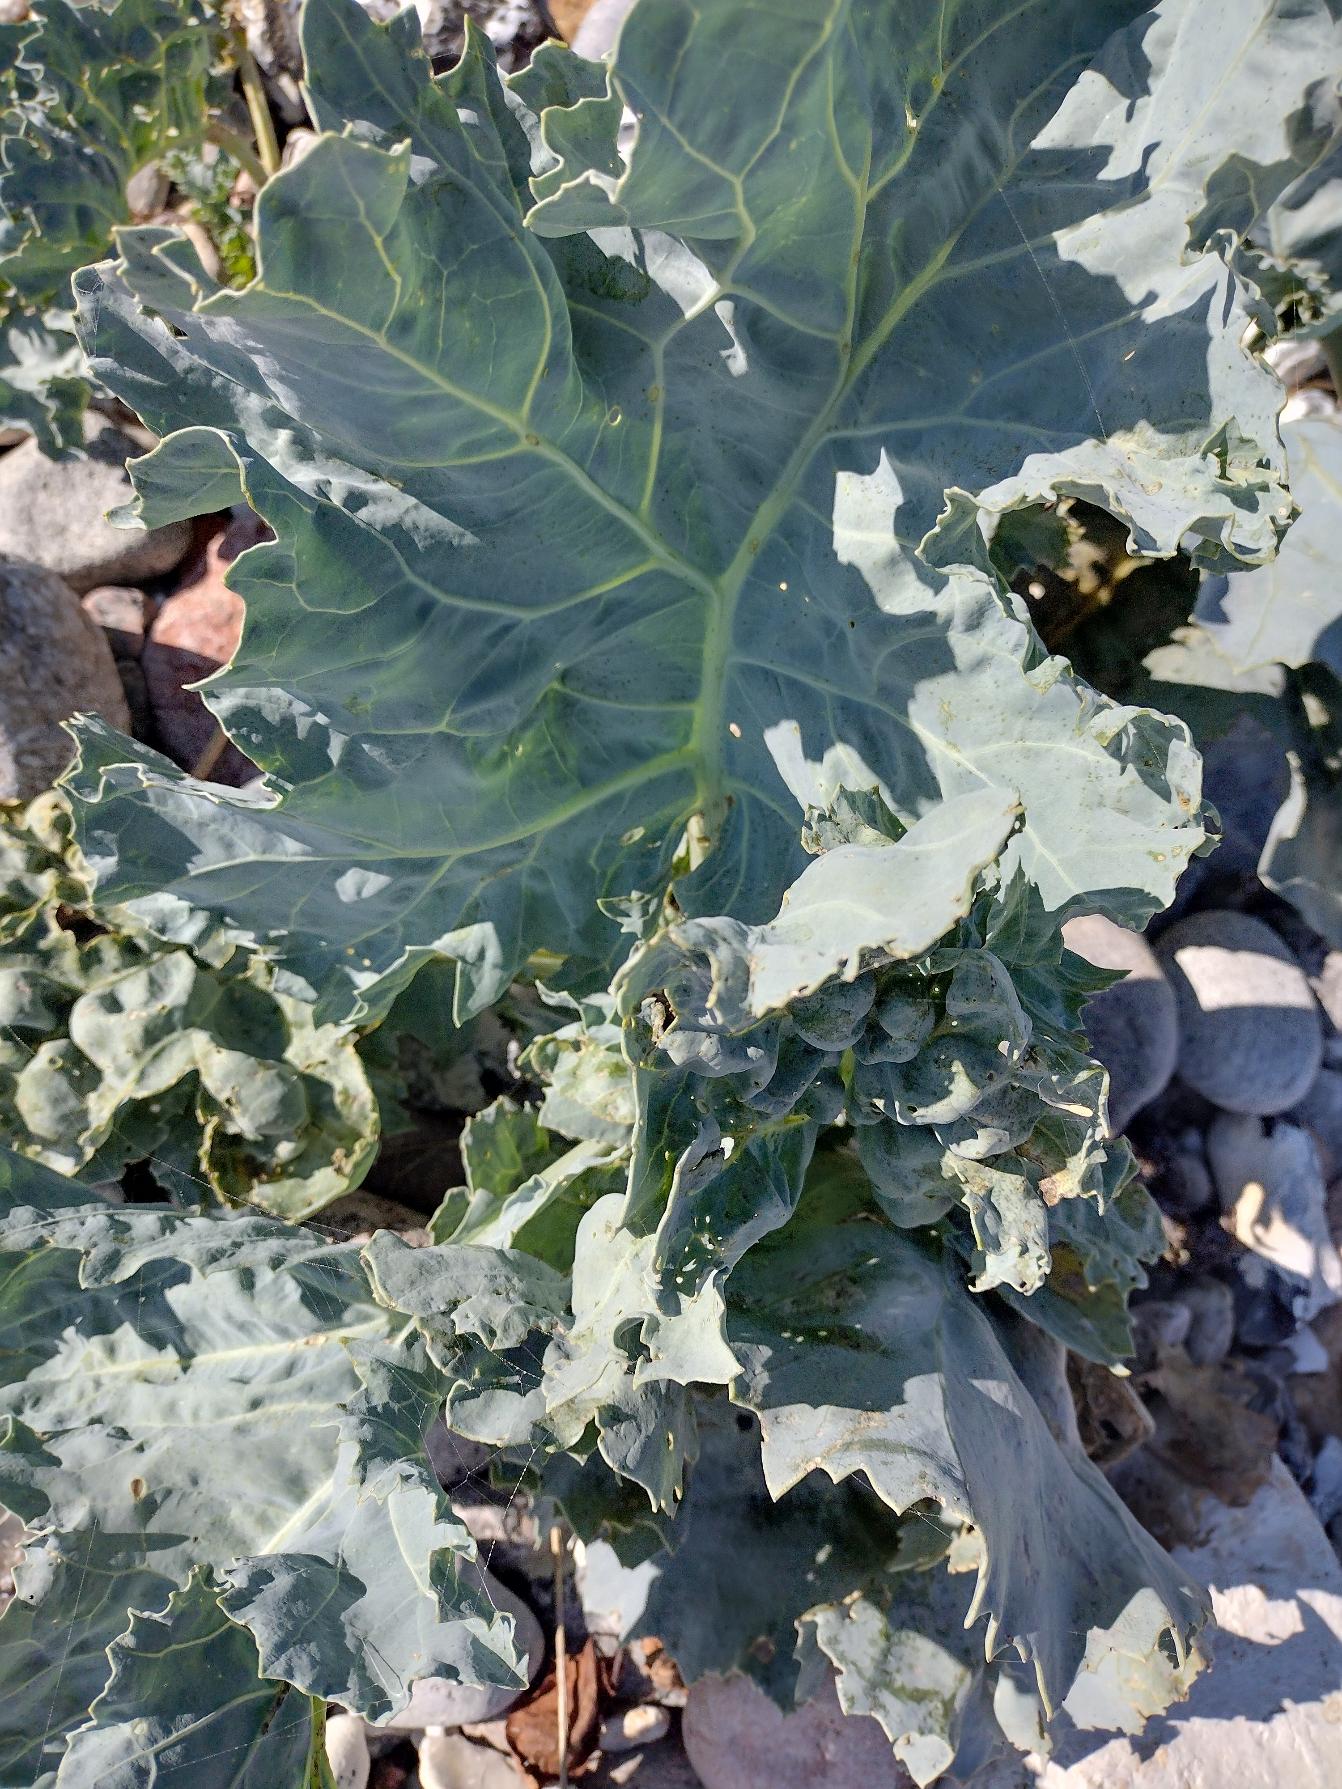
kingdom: Plantae
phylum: Tracheophyta
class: Magnoliopsida
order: Brassicales
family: Brassicaceae
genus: Crambe
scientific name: Crambe maritima
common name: Strandkål
